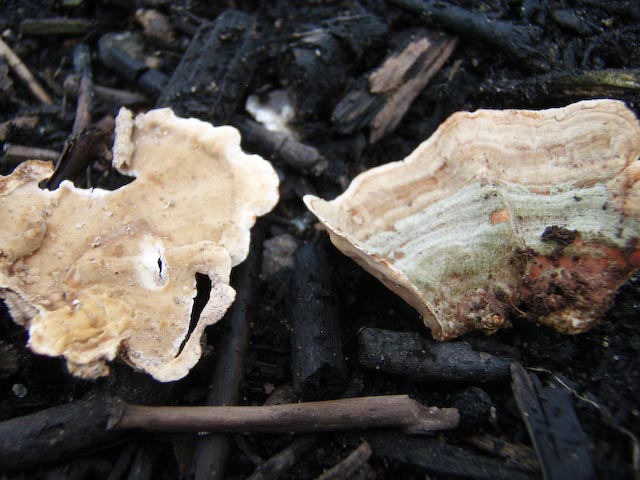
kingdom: Fungi
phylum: Basidiomycota
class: Agaricomycetes
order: Russulales
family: Stereaceae
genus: Stereum
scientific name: Stereum subtomentosum
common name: smuk lædersvamp
